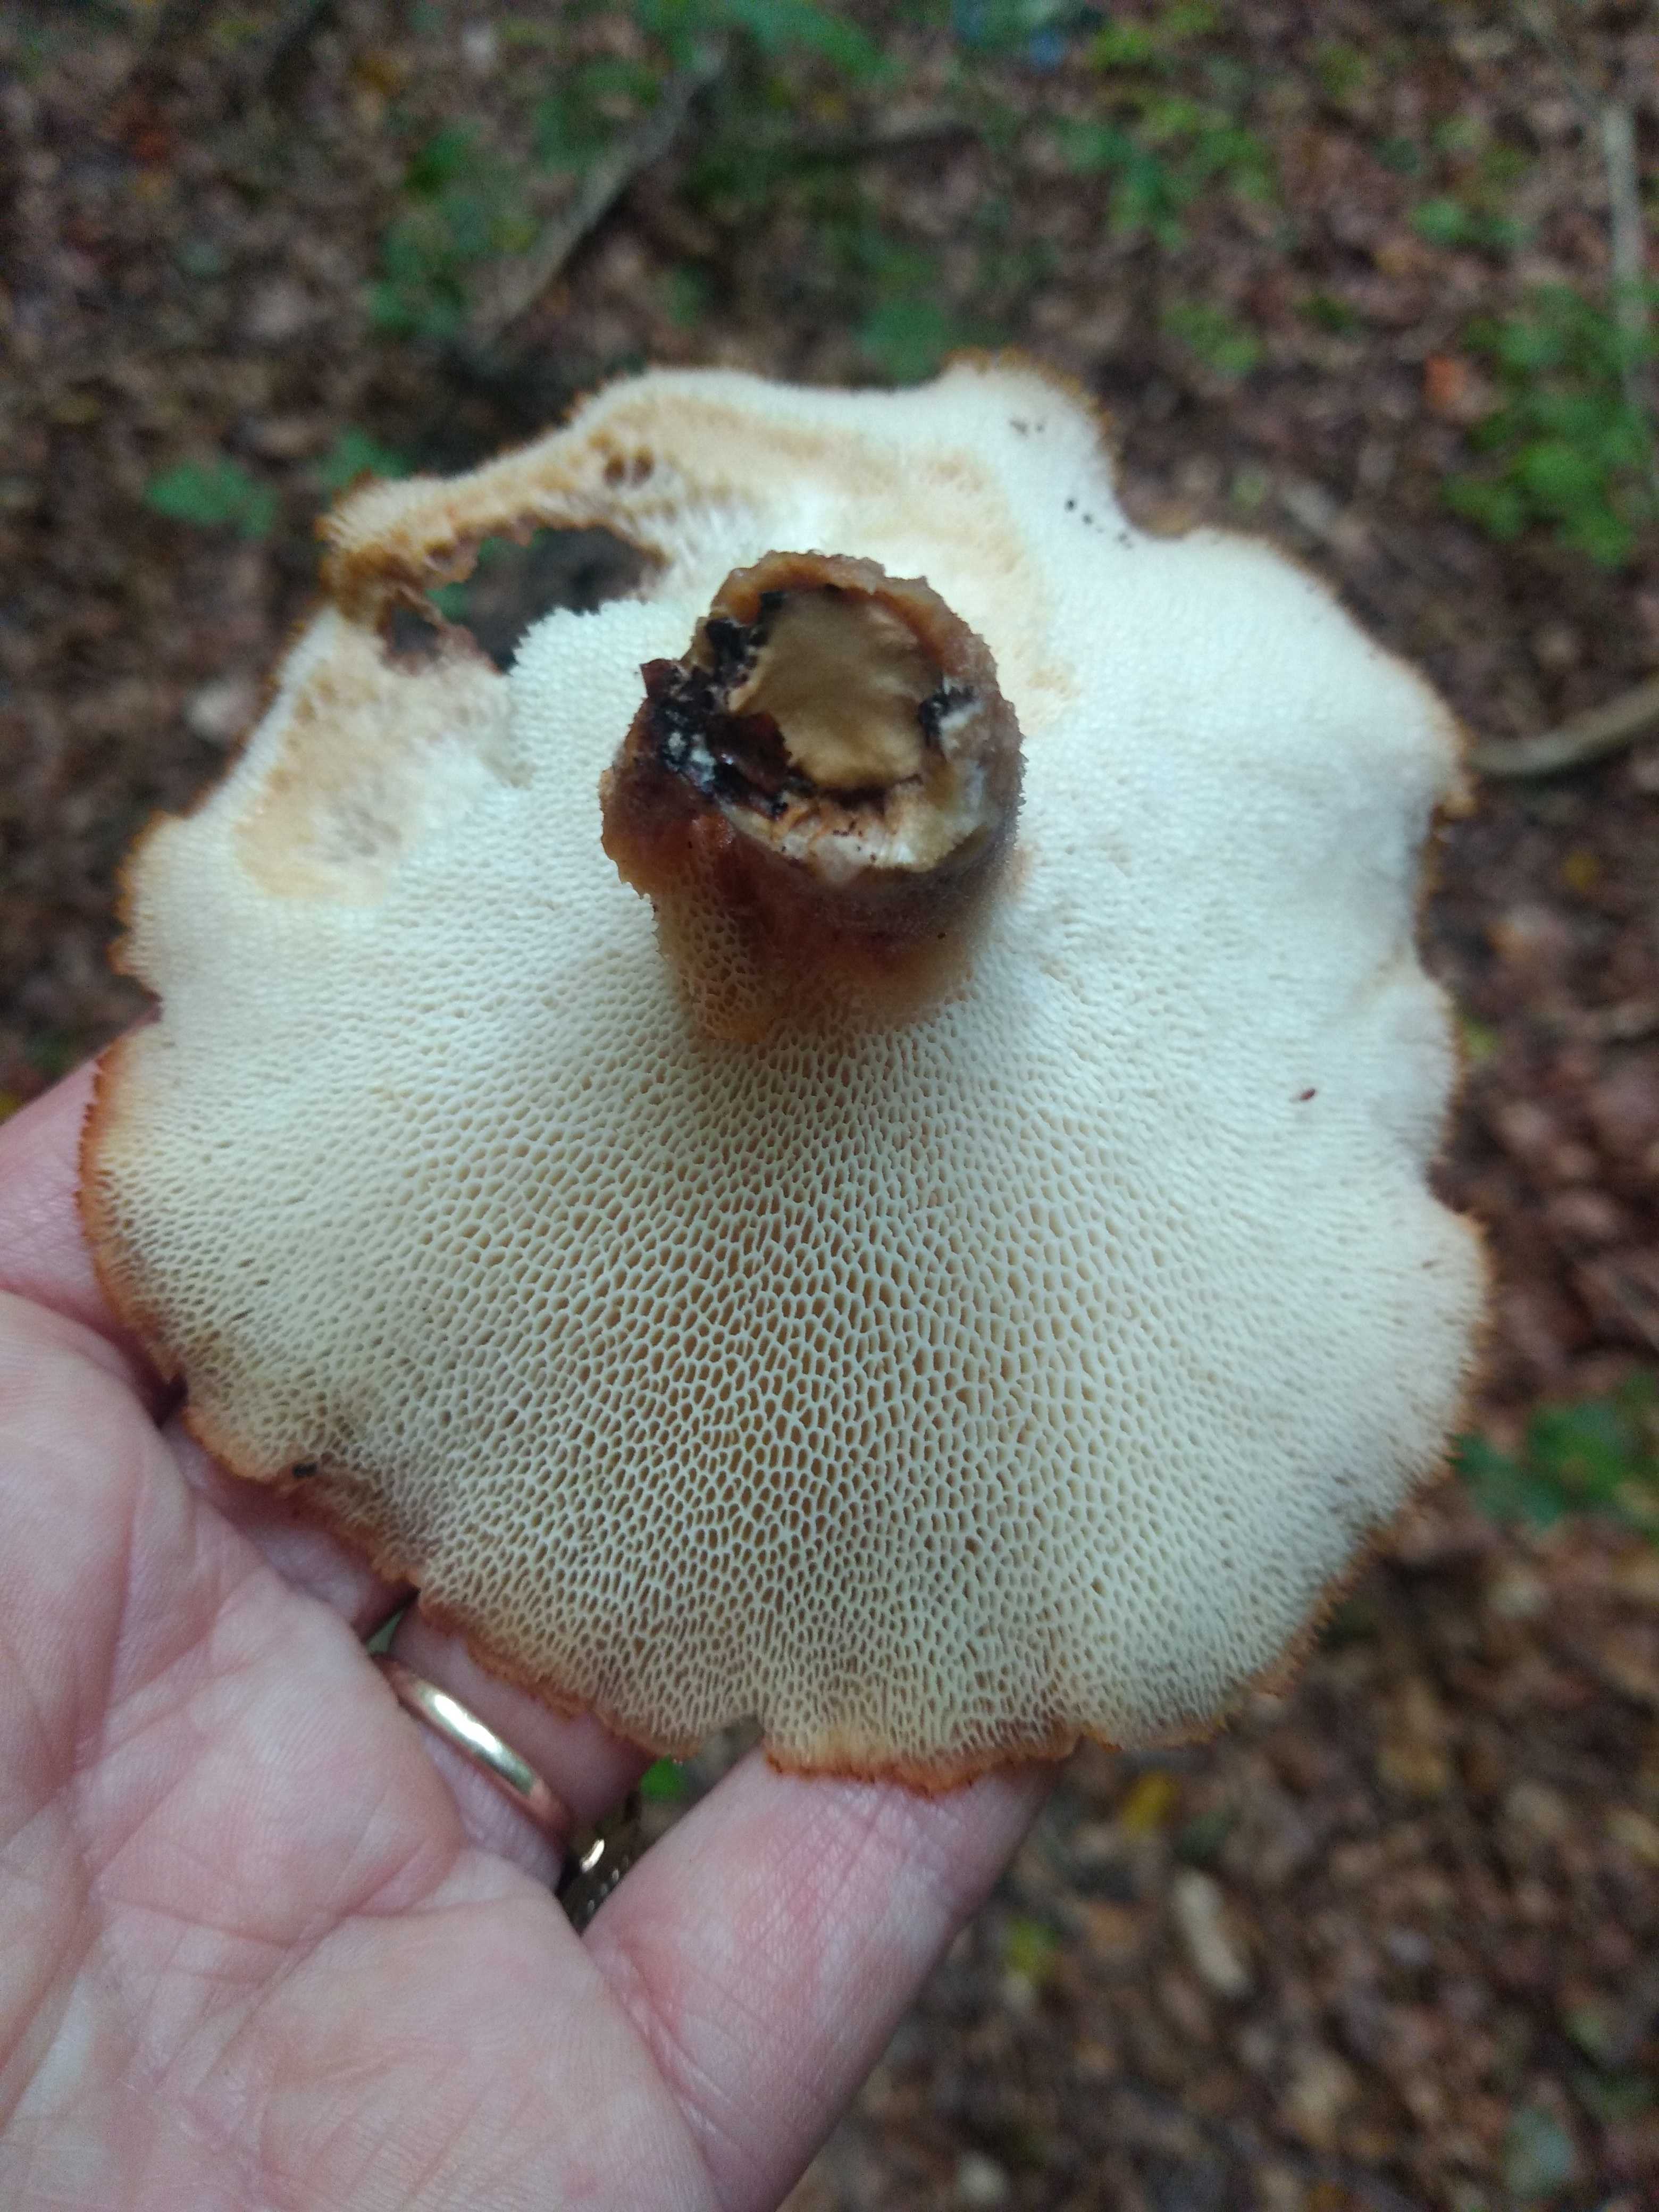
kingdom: Fungi
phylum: Basidiomycota
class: Agaricomycetes
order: Polyporales
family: Polyporaceae
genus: Polyporus
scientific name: Polyporus tuberaster
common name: knoldet stilkporesvamp
